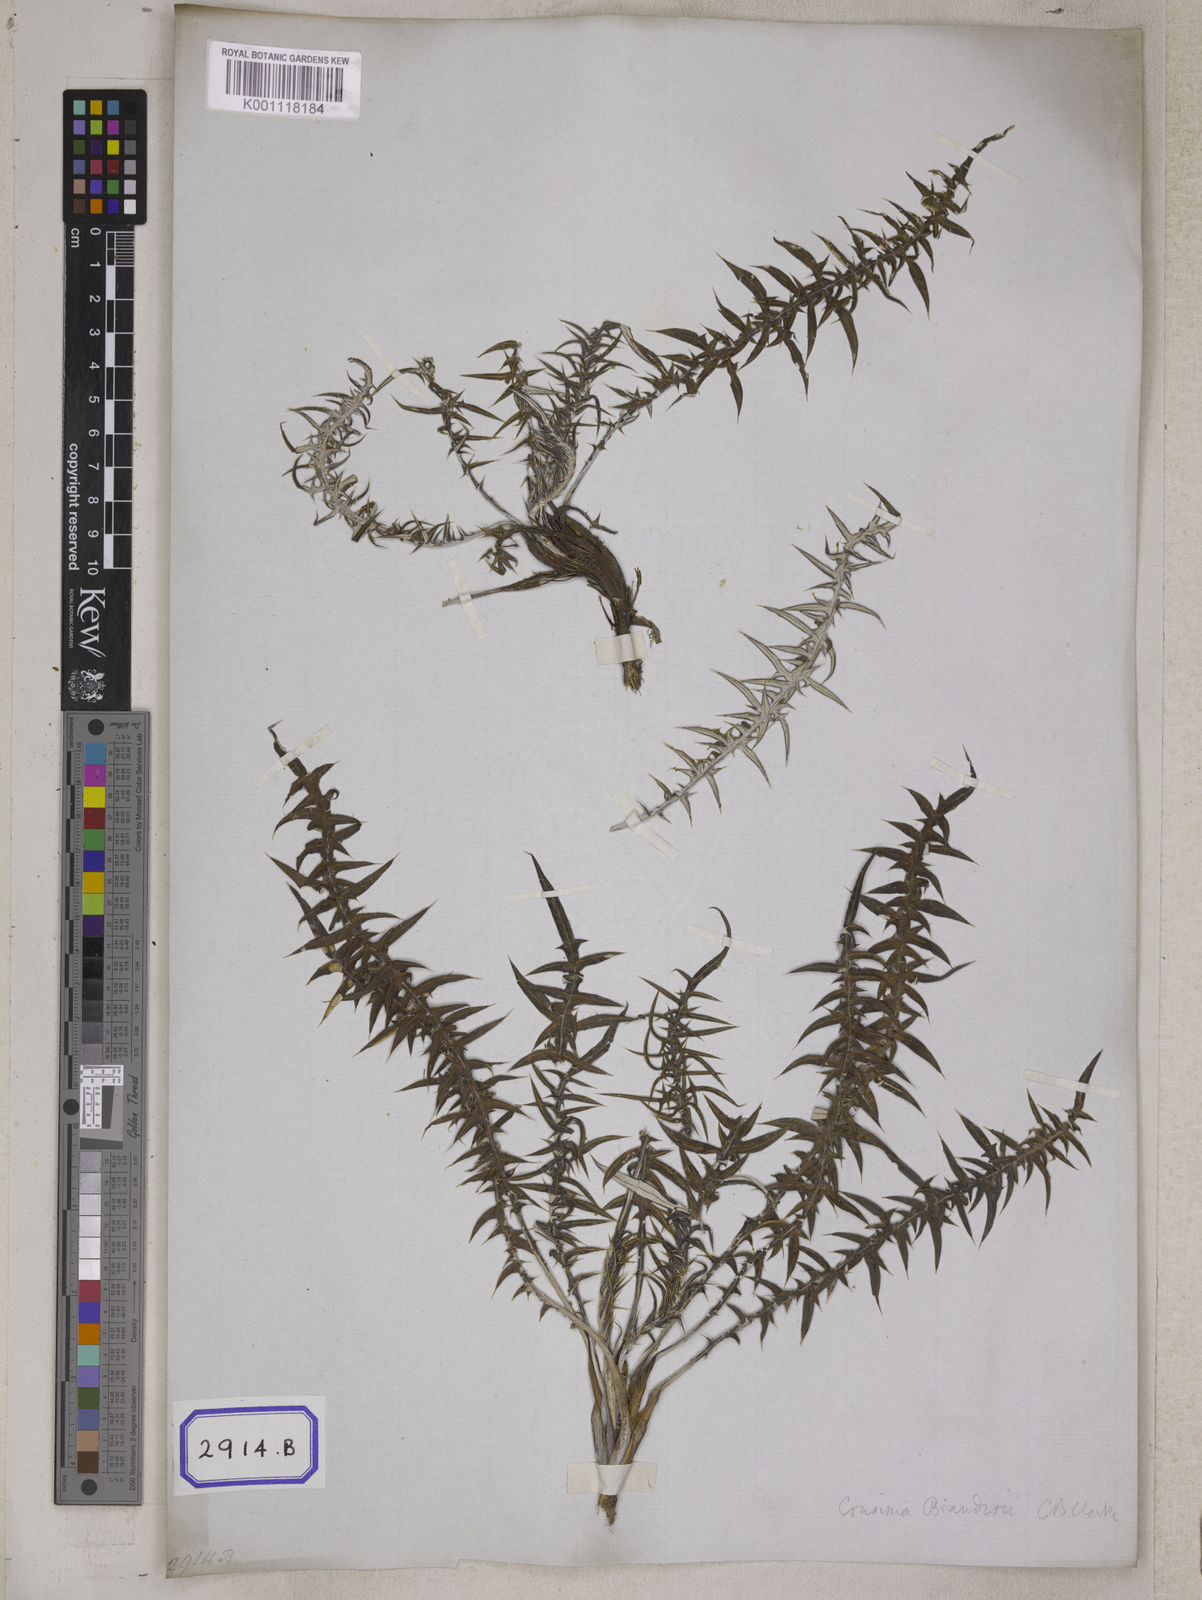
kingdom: Plantae
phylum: Tracheophyta
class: Magnoliopsida
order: Asterales
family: Asteraceae
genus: Saussurea
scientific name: Saussurea
